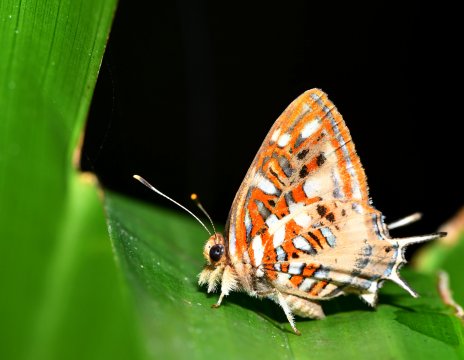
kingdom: Animalia
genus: Charis
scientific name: Charis Sarota chrysus
